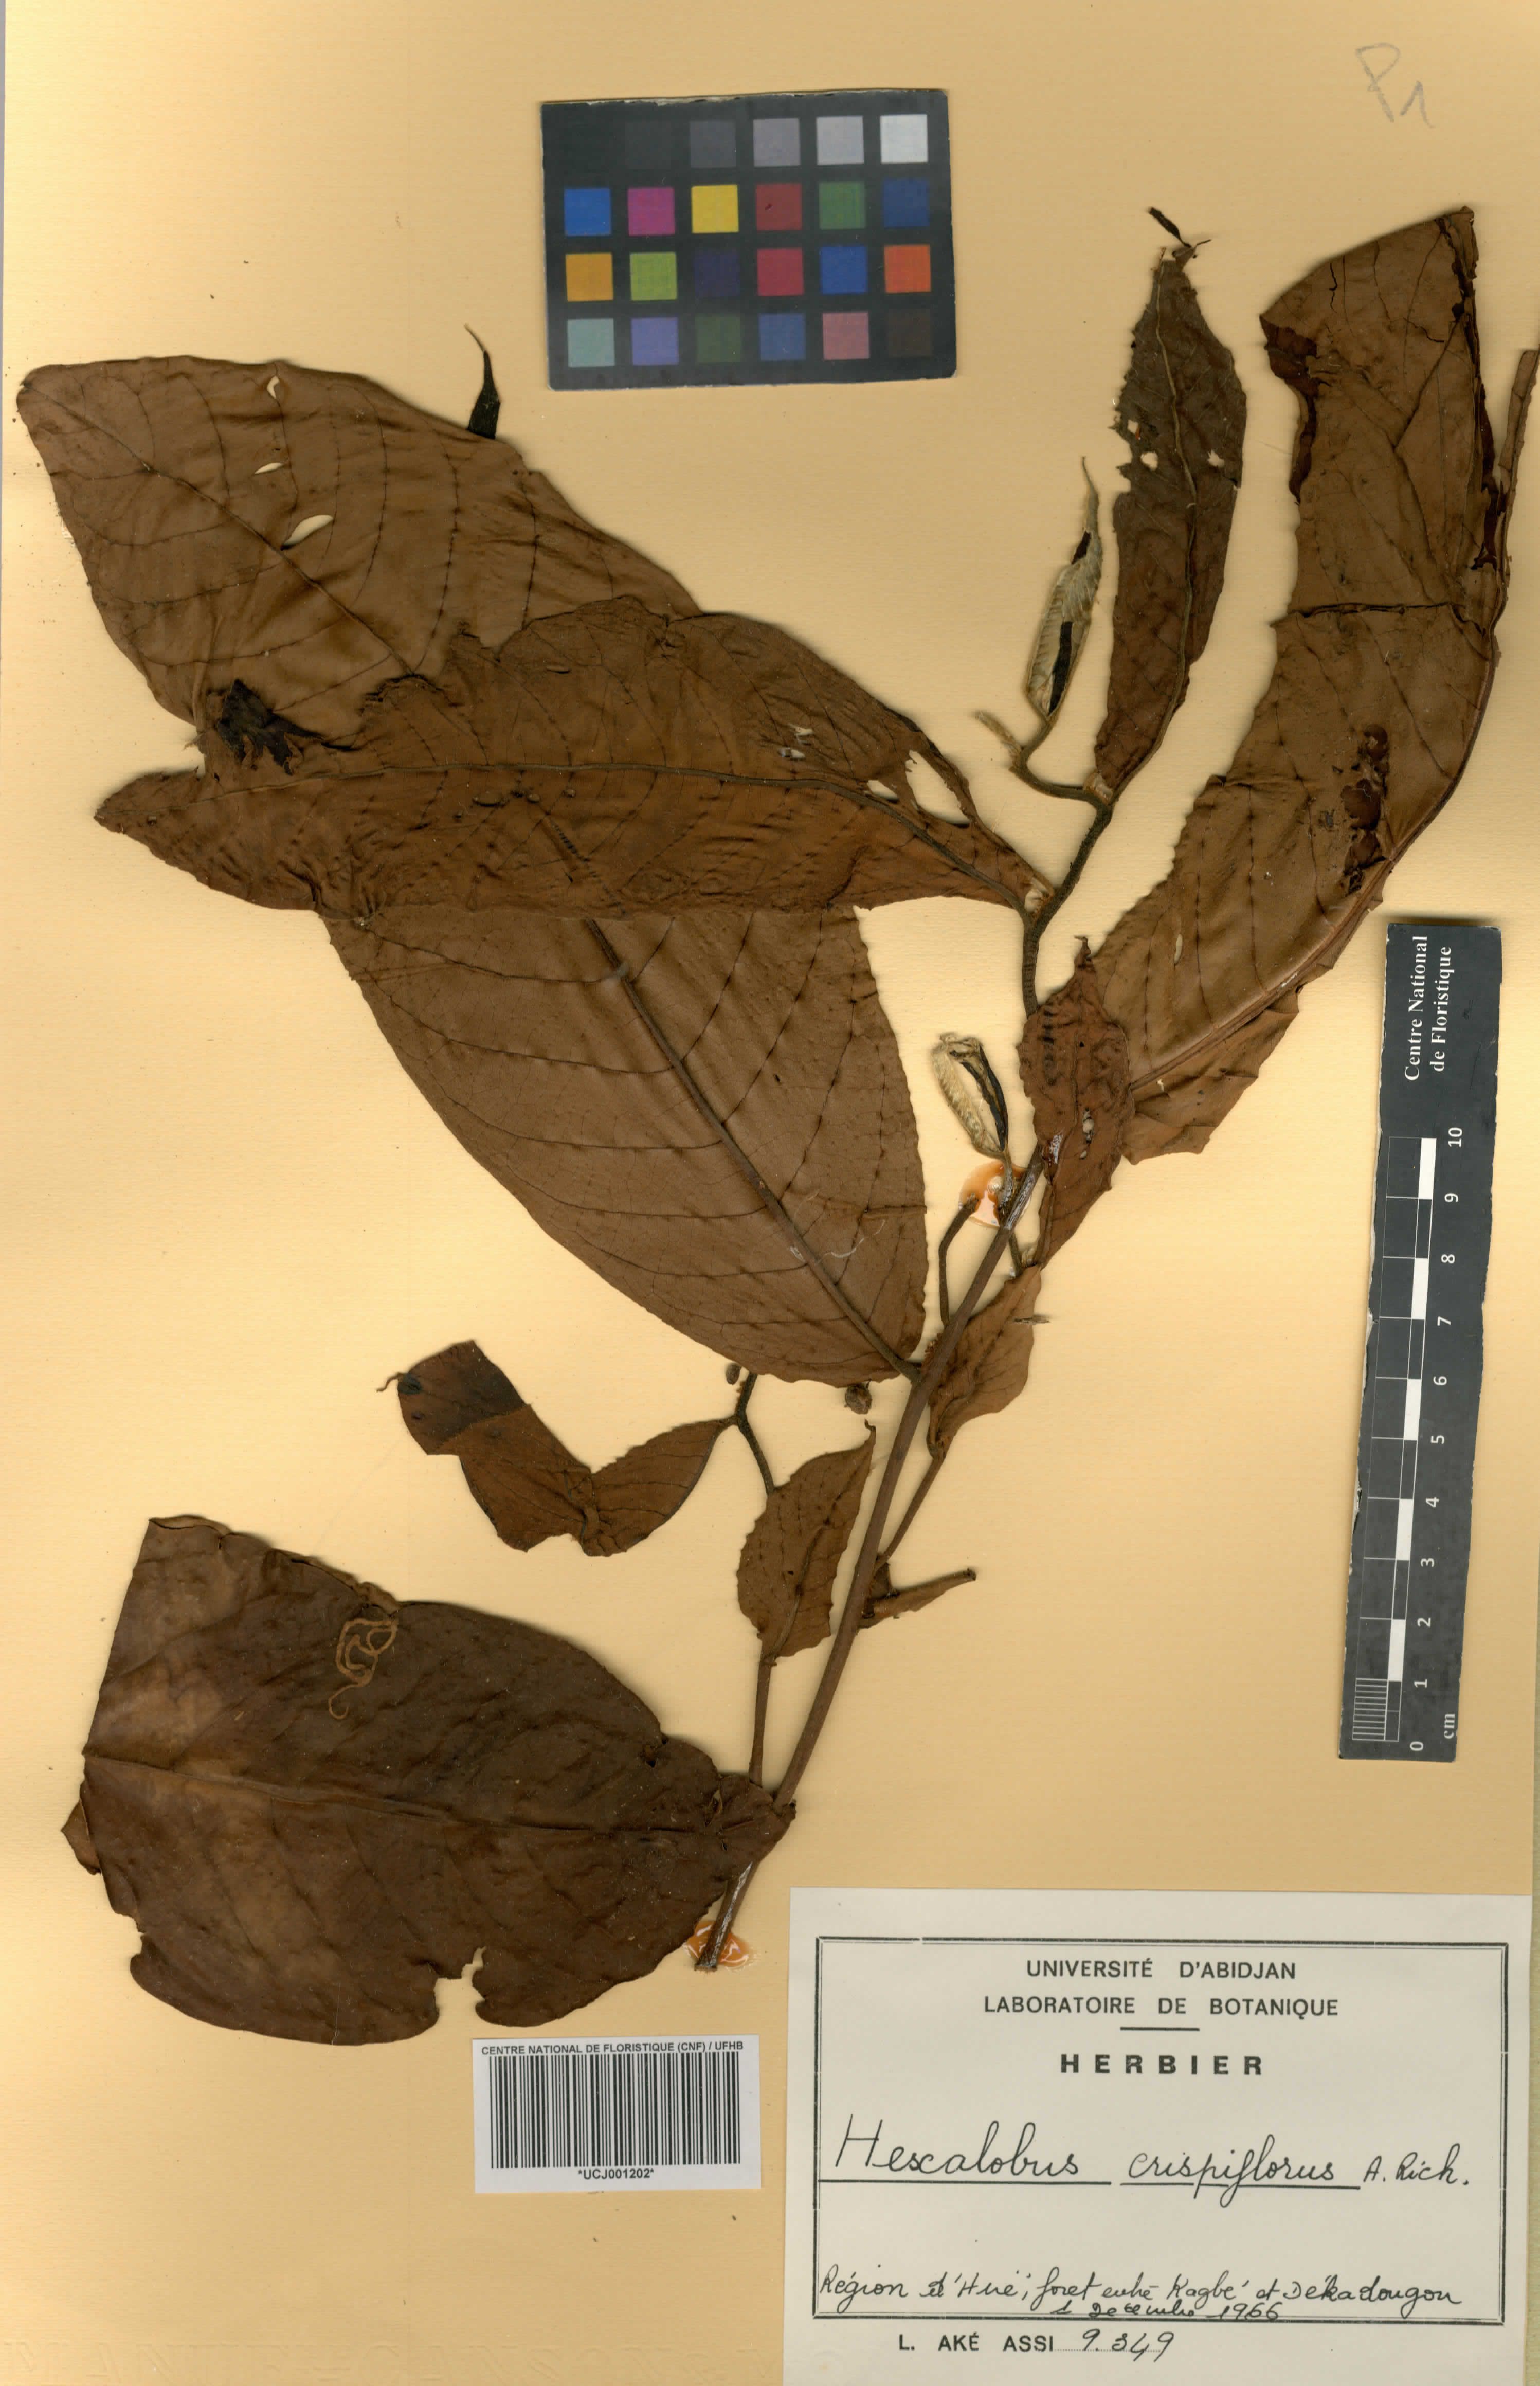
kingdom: Plantae
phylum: Tracheophyta
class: Magnoliopsida
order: Magnoliales
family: Annonaceae
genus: Hexalobus
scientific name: Hexalobus crispiflorus
